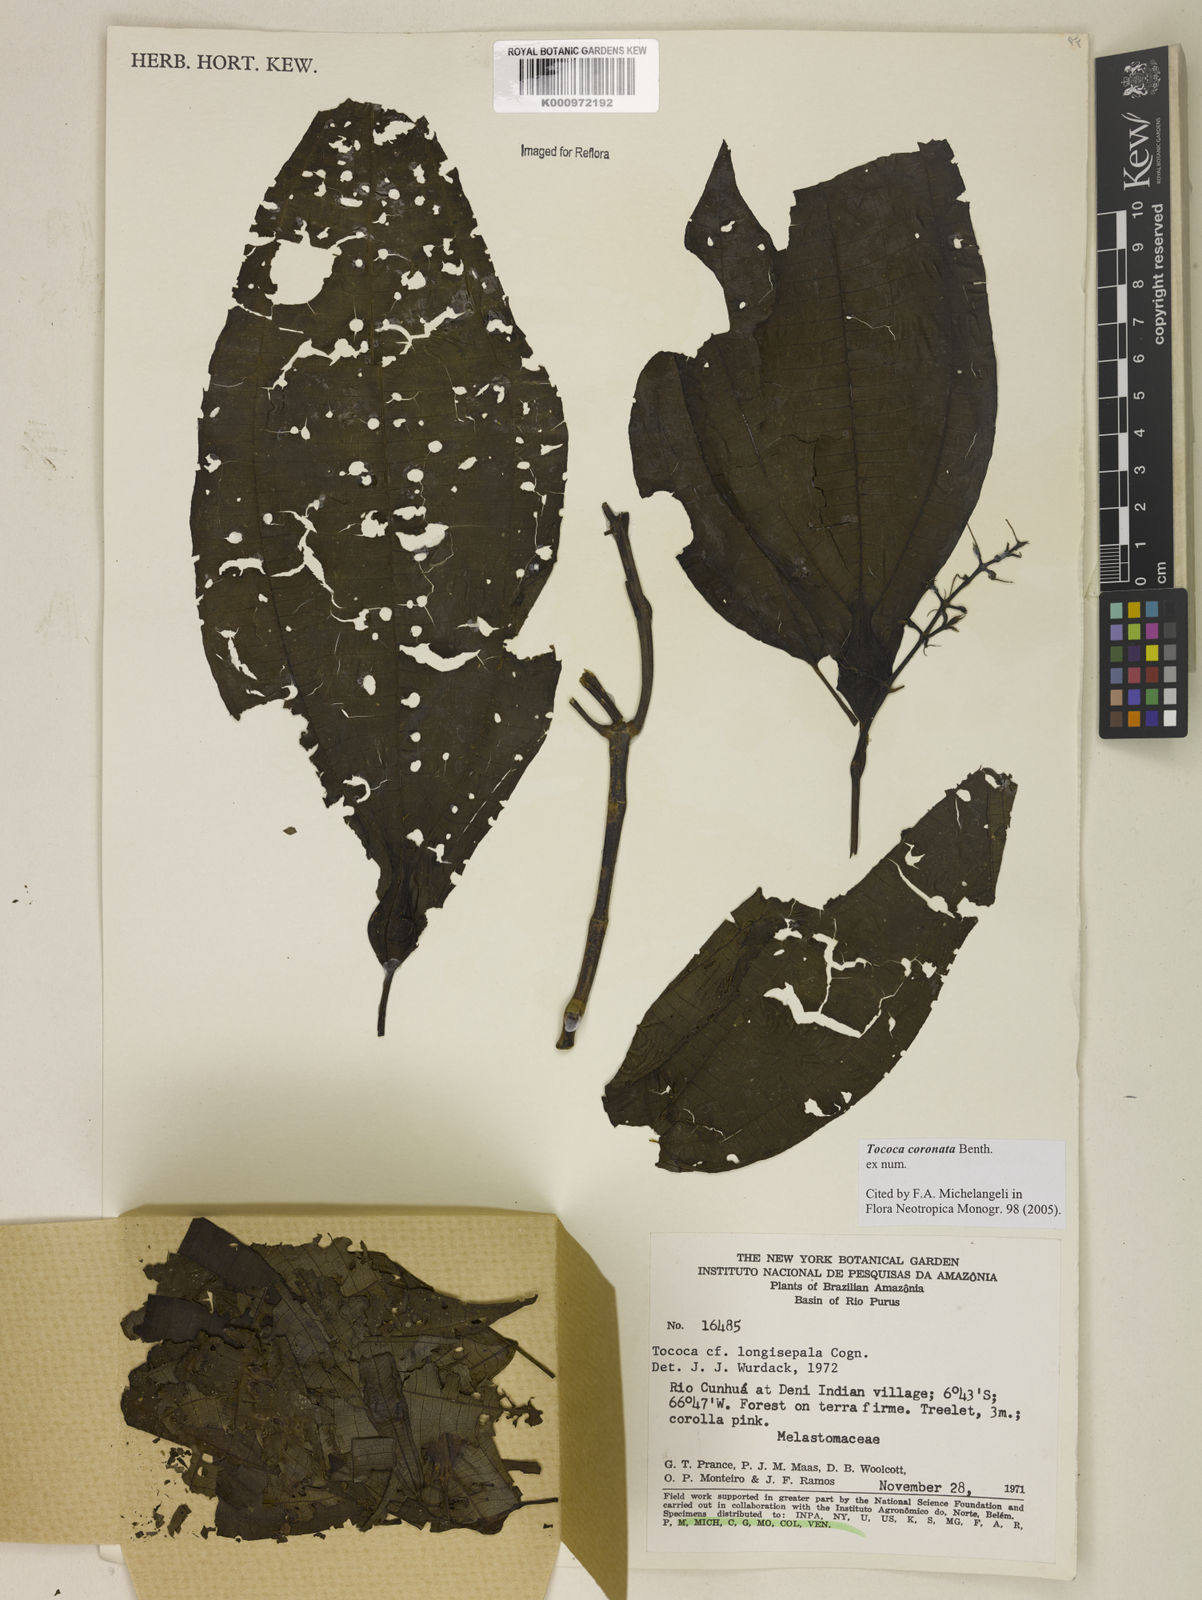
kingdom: Plantae
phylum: Tracheophyta
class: Magnoliopsida
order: Myrtales
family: Melastomataceae
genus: Miconia
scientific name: Miconia tococoronata
